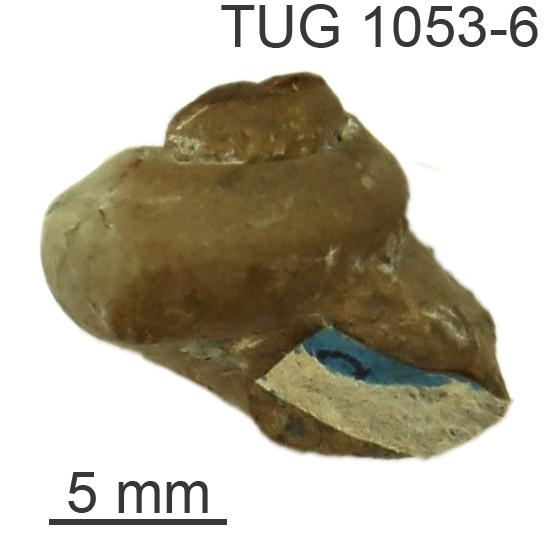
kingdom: Animalia
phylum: Mollusca
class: Gastropoda
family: Lophospiridae
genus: Loxoplocus
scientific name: Loxoplocus Lophospira sedgwicki
